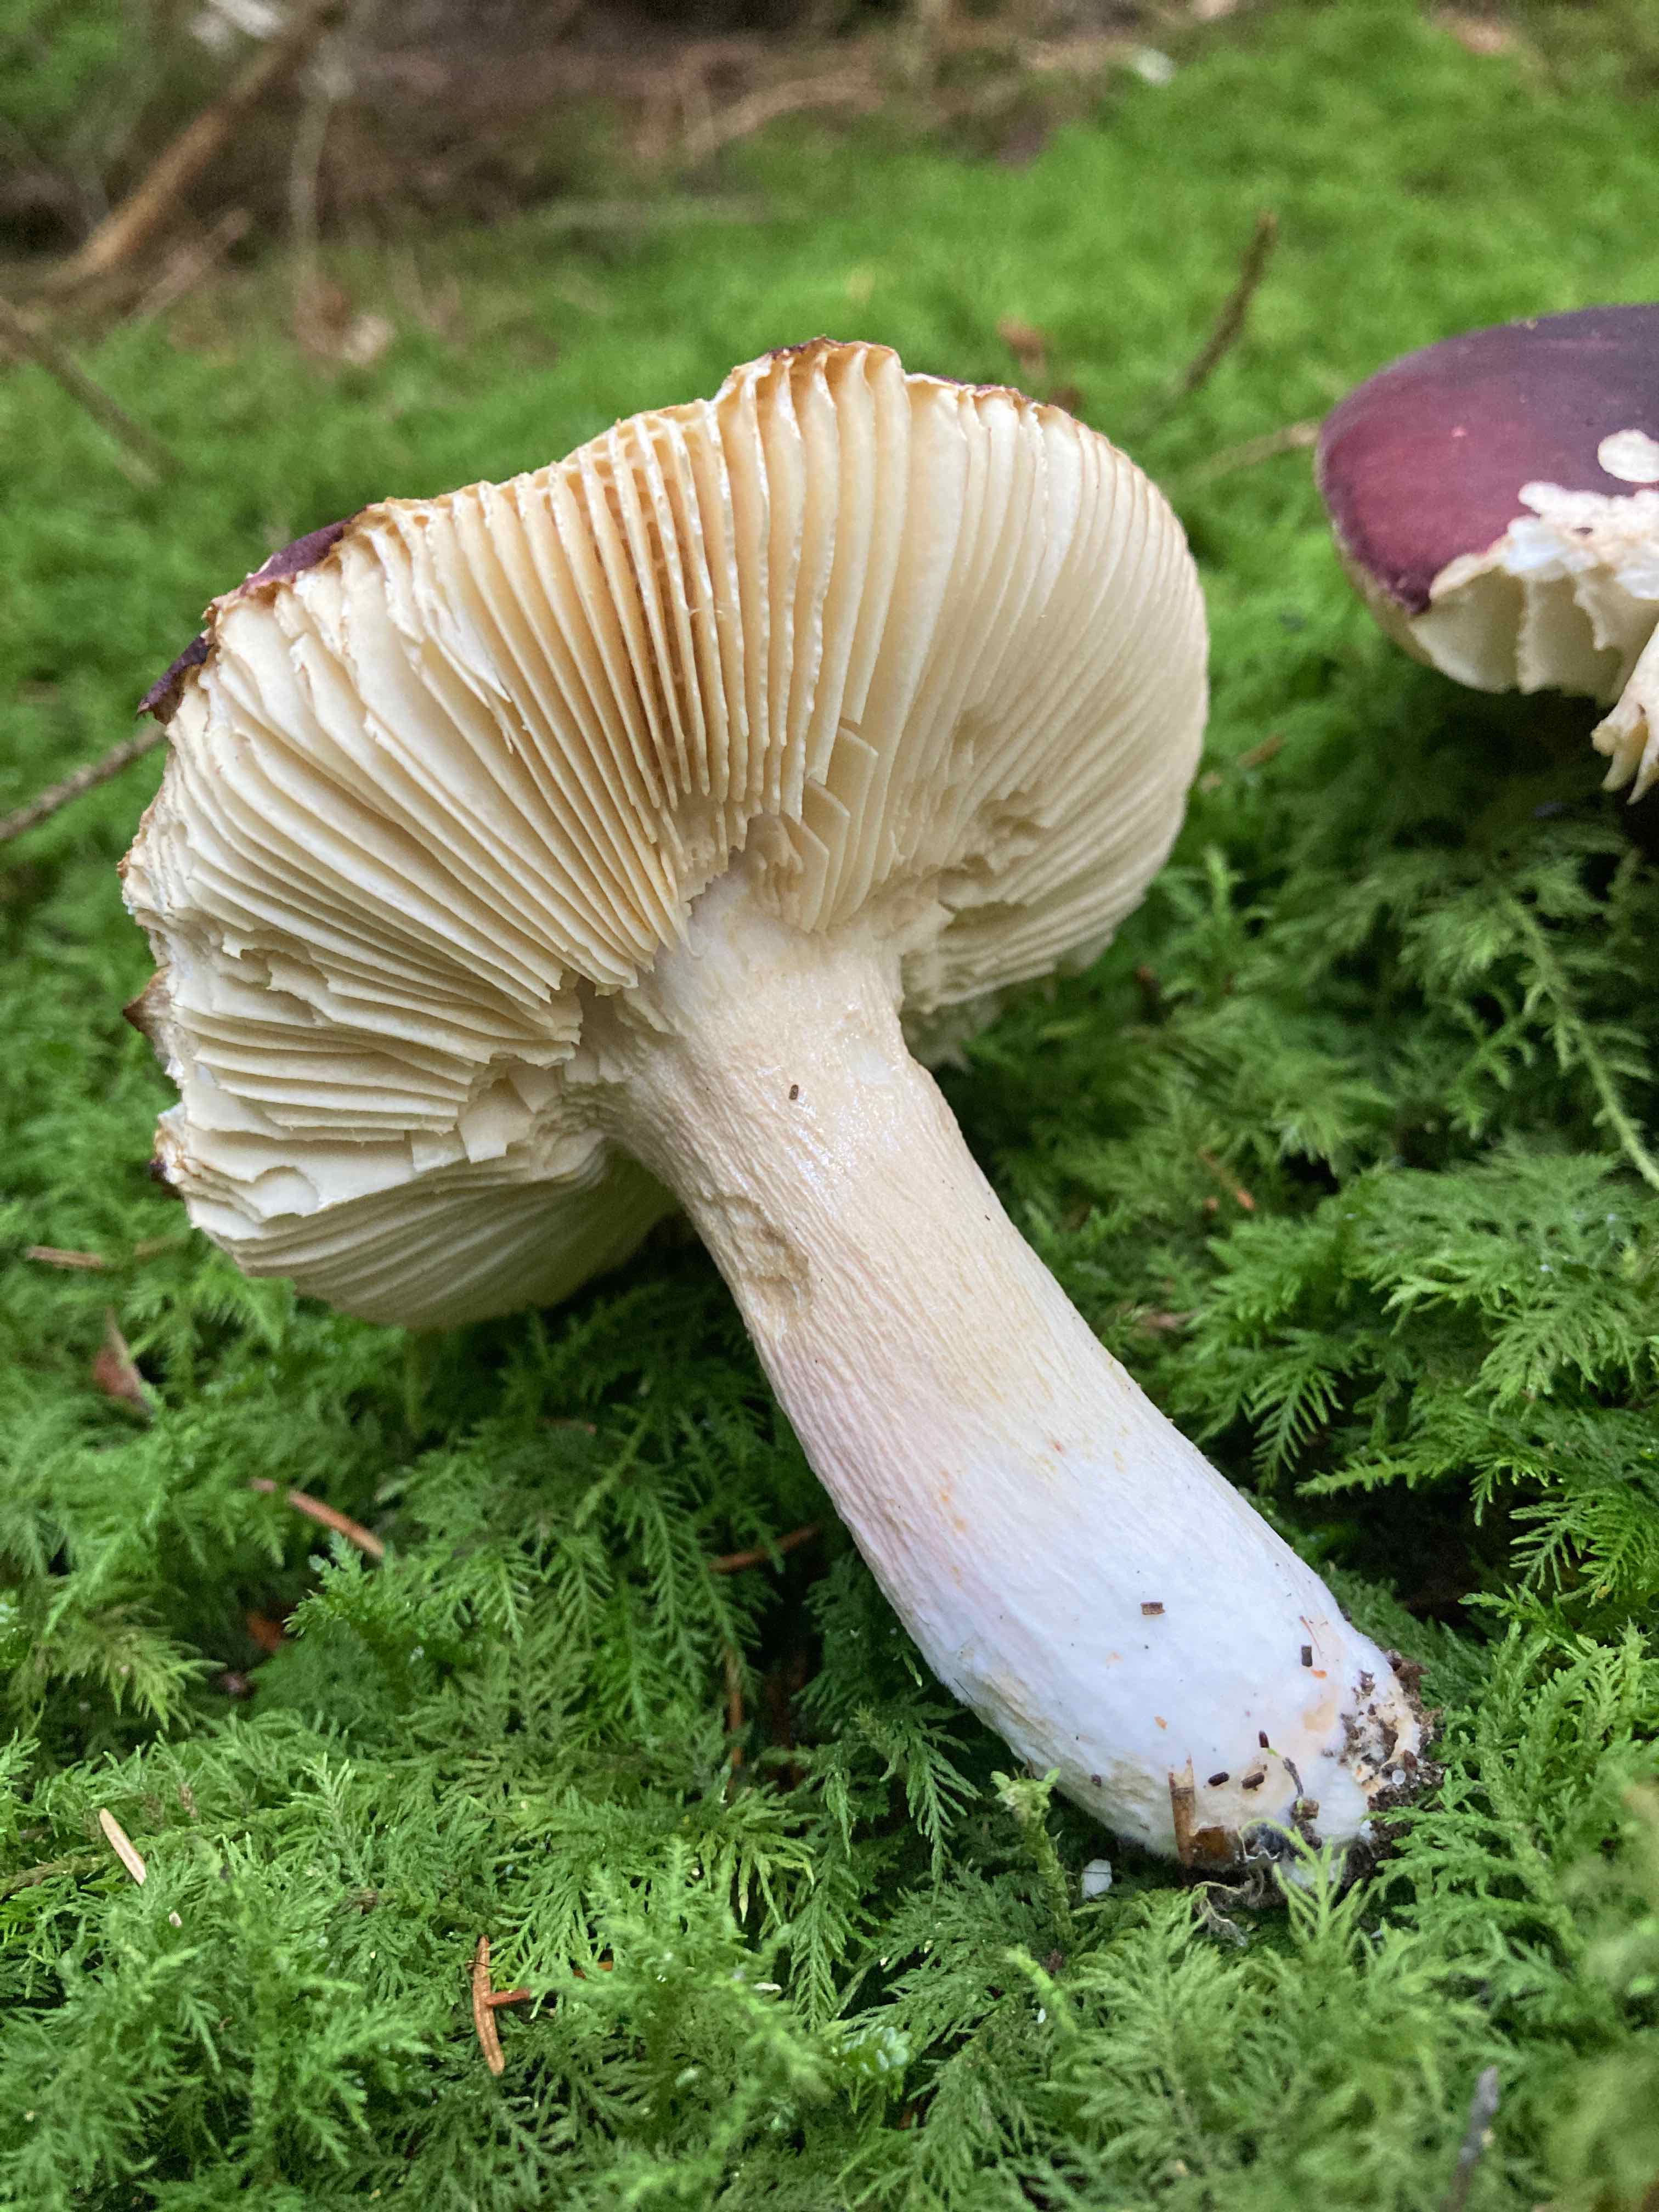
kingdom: Fungi
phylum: Basidiomycota
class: Agaricomycetes
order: Russulales
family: Russulaceae
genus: Russula
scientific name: Russula
